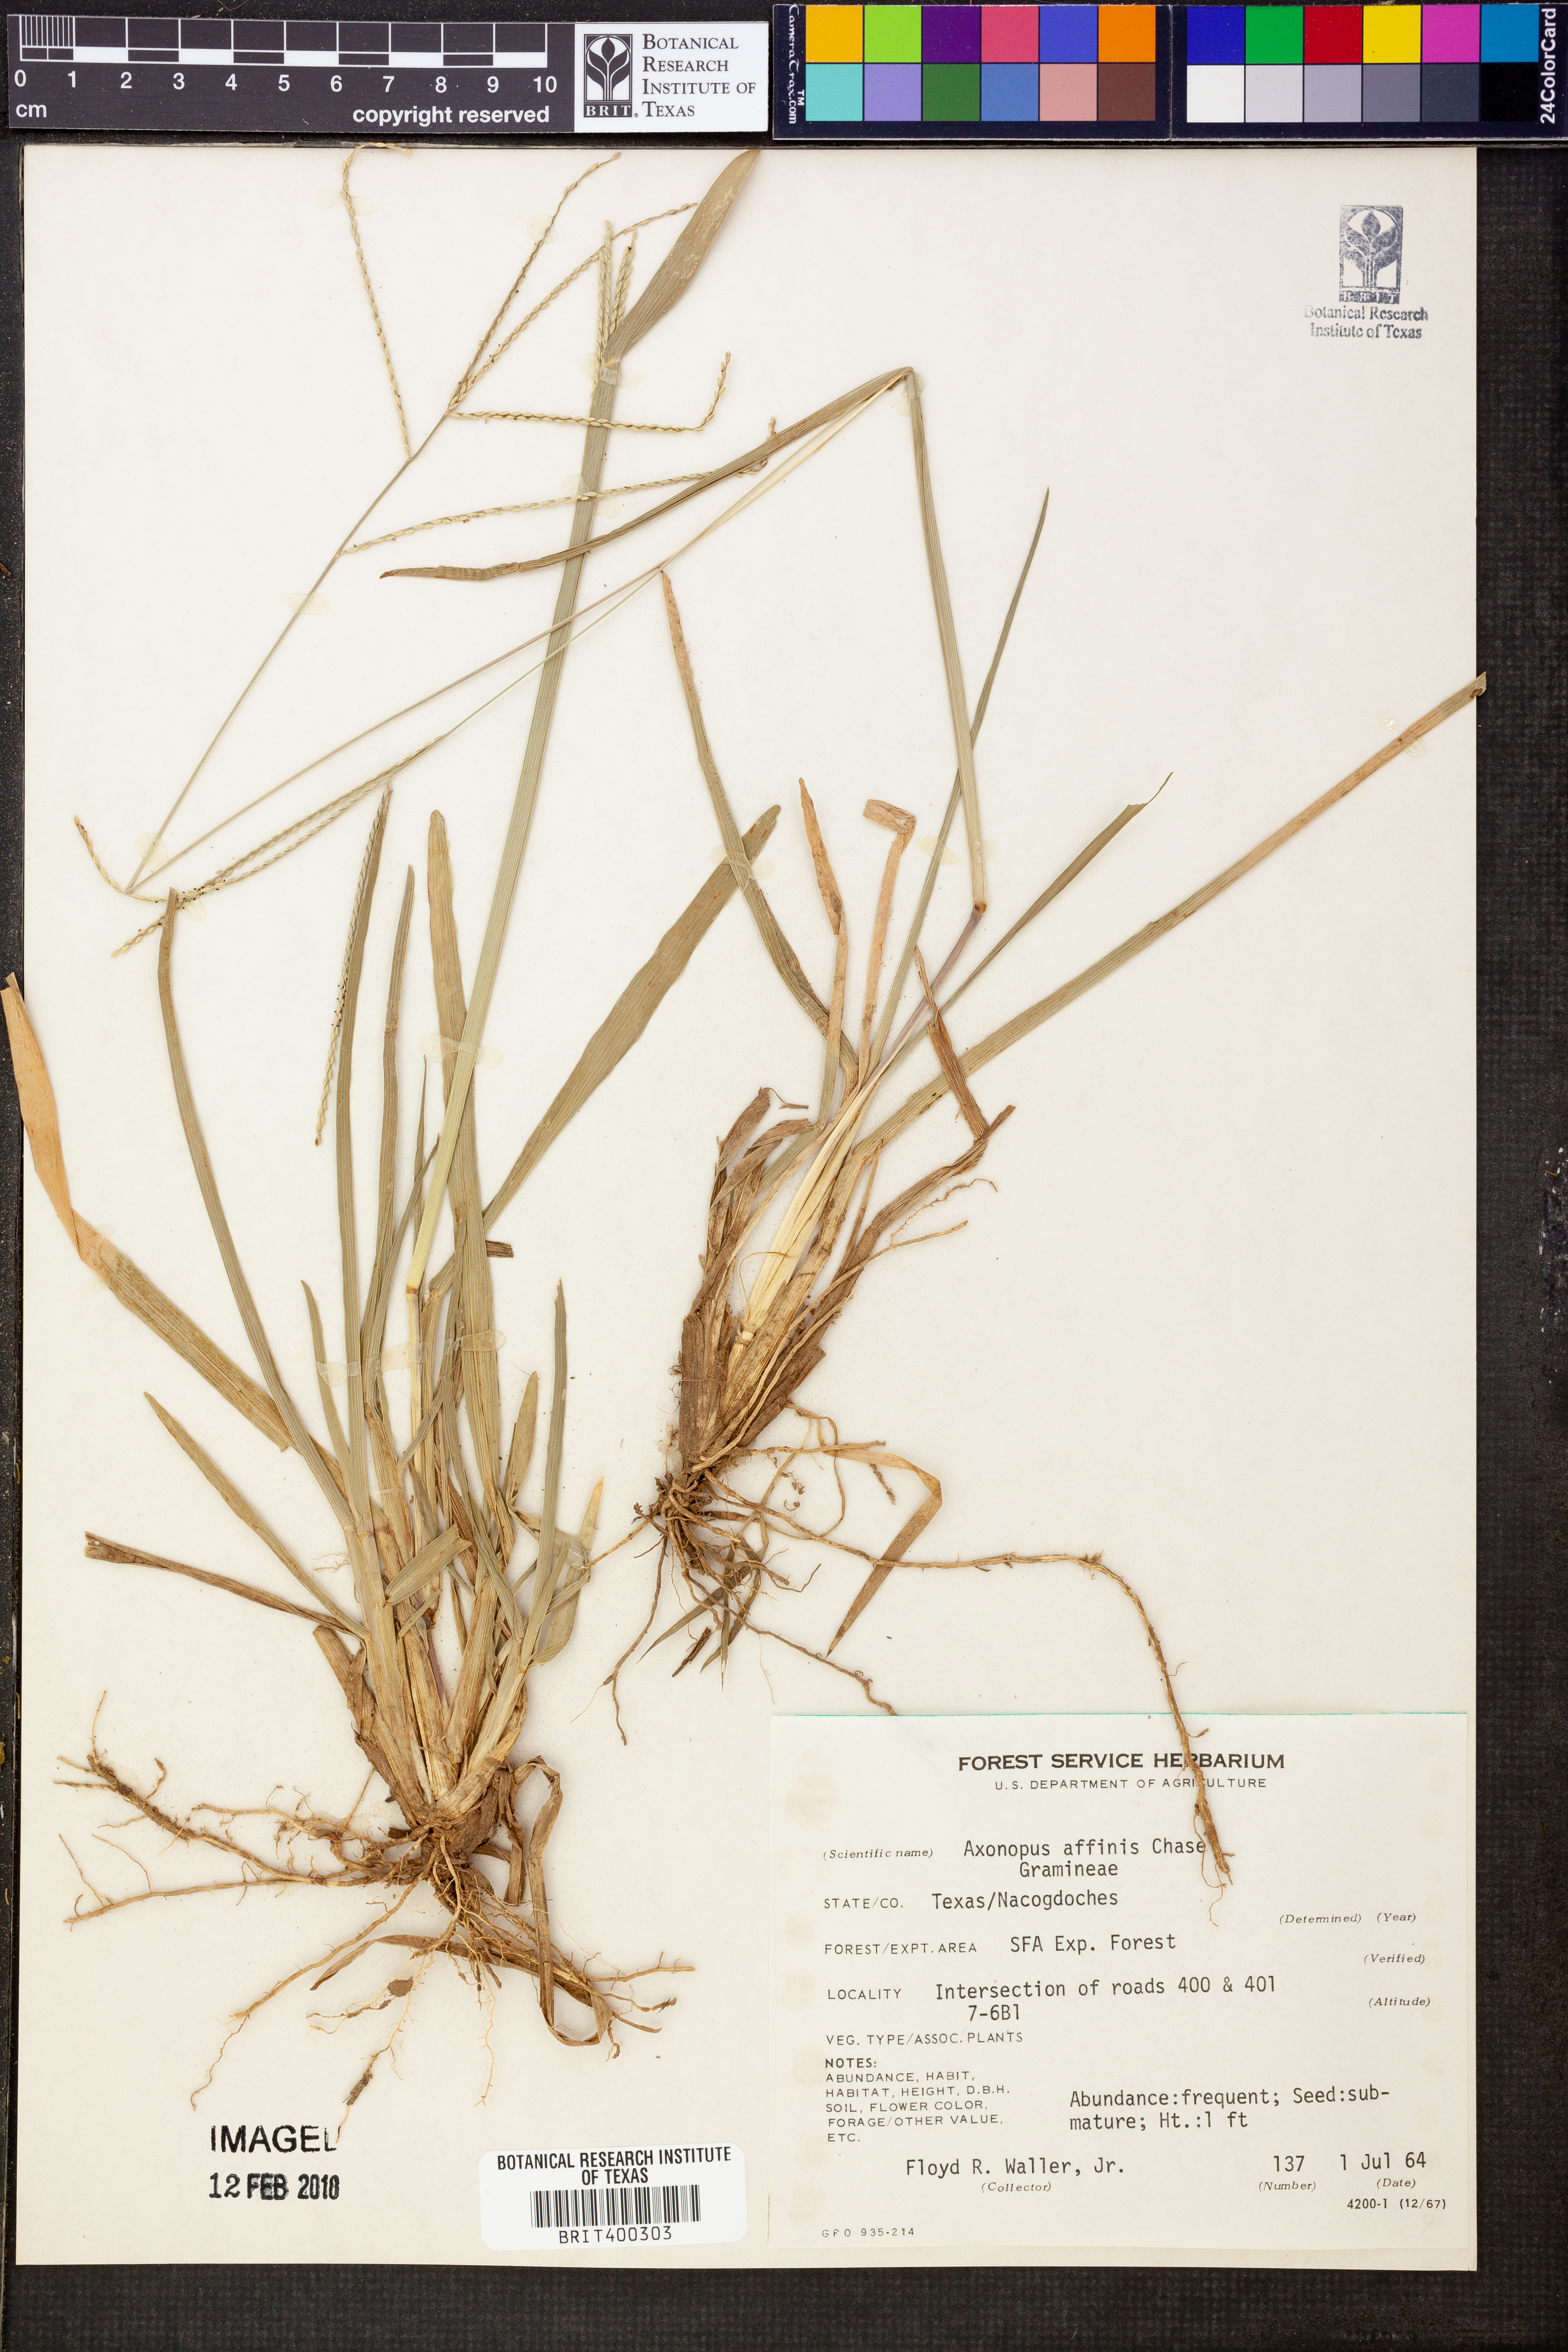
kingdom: Plantae
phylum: Tracheophyta
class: Liliopsida
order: Poales
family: Poaceae
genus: Axonopus
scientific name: Axonopus fissifolius
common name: Common carpetgrass
